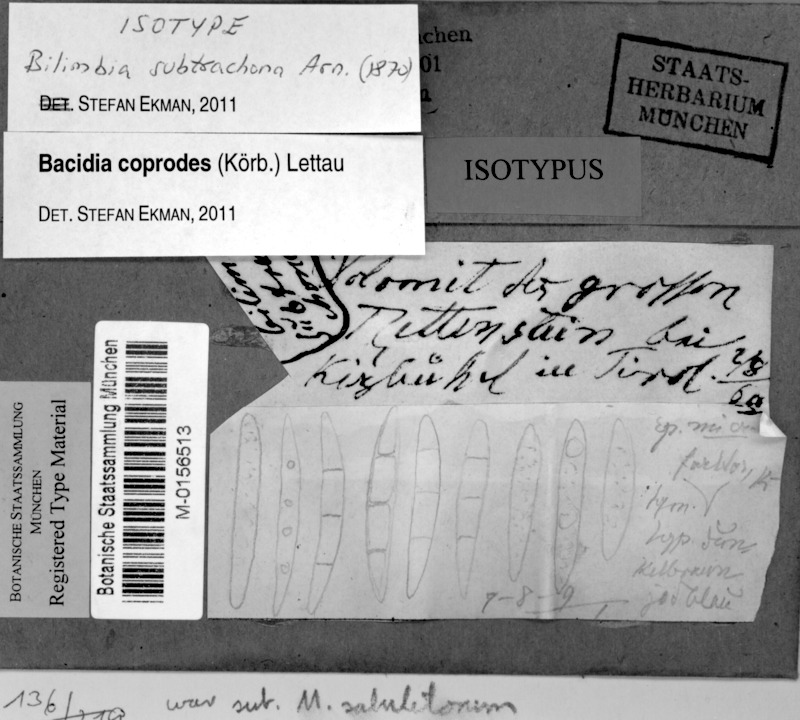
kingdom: Fungi
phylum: Ascomycota
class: Lecanoromycetes
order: Lecanorales
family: Ramalinaceae
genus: Toniniopsis
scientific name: Toniniopsis coprodes
